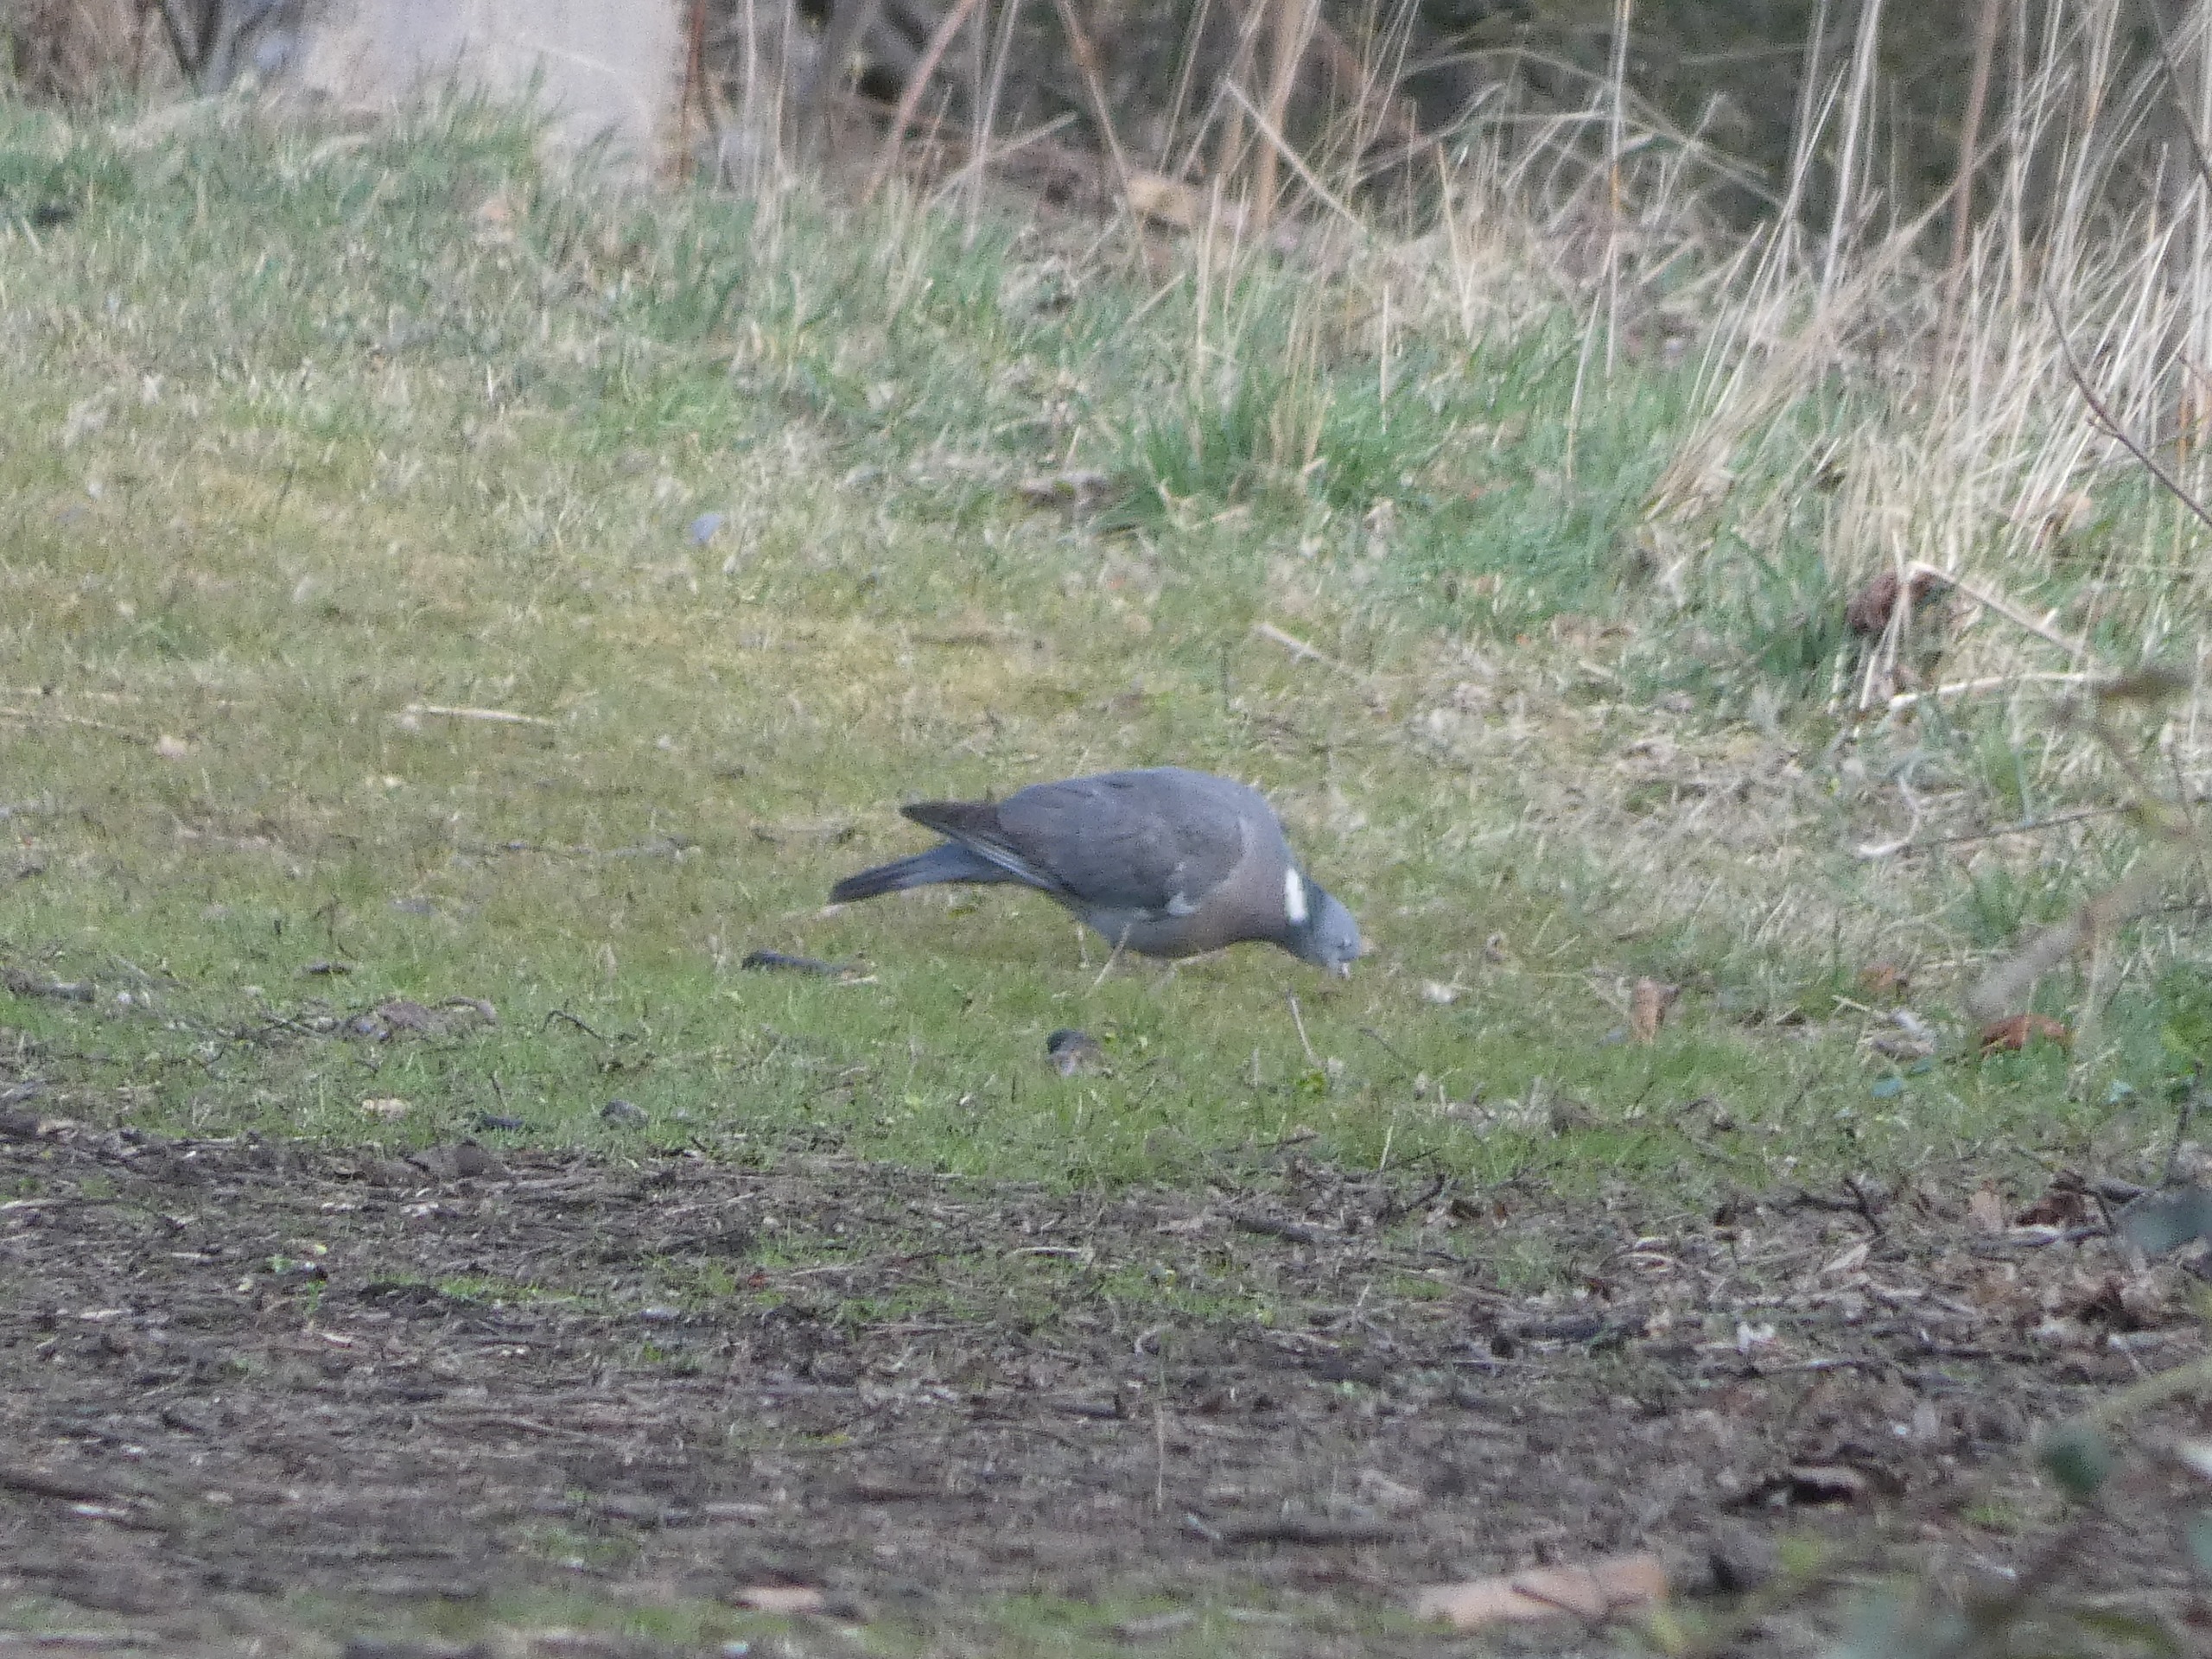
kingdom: Animalia
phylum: Chordata
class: Aves
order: Columbiformes
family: Columbidae
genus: Columba
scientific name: Columba palumbus
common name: Ringdue
